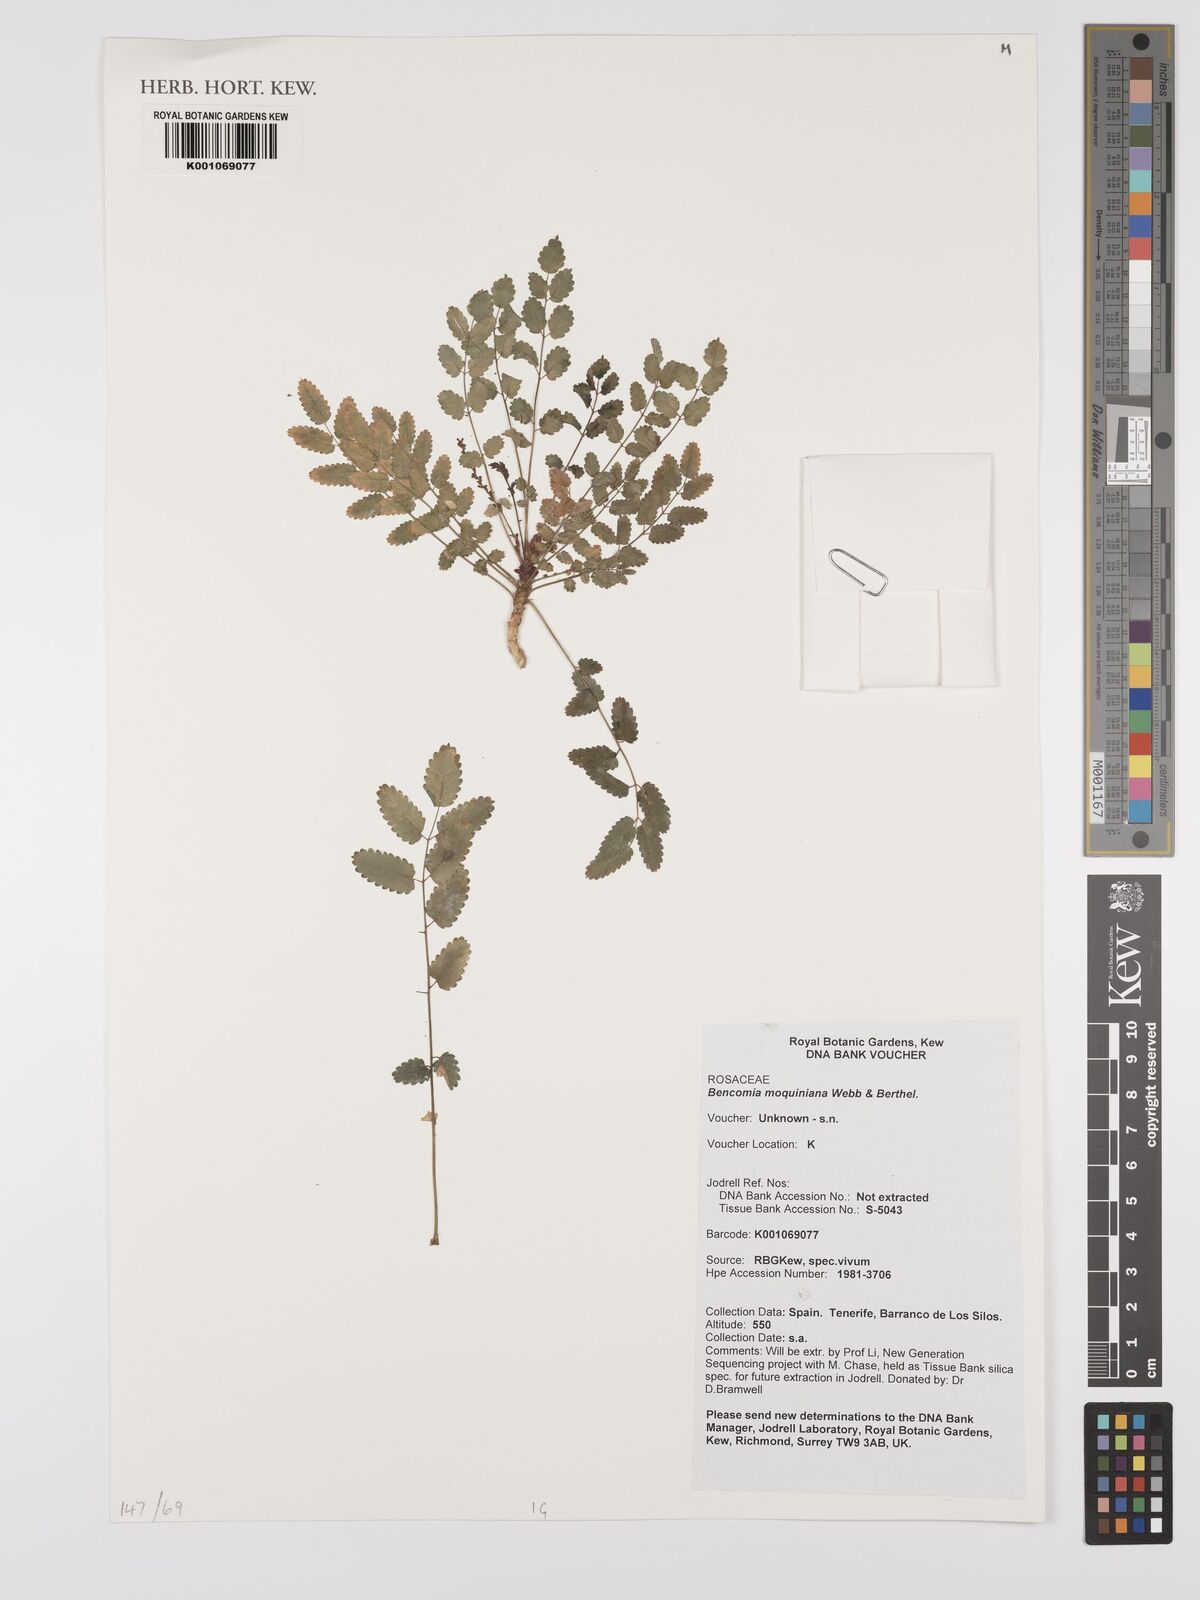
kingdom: Plantae
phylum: Tracheophyta
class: Magnoliopsida
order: Rosales
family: Rosaceae
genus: Marcetella
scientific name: Marcetella moquiniana
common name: Burnet tree
